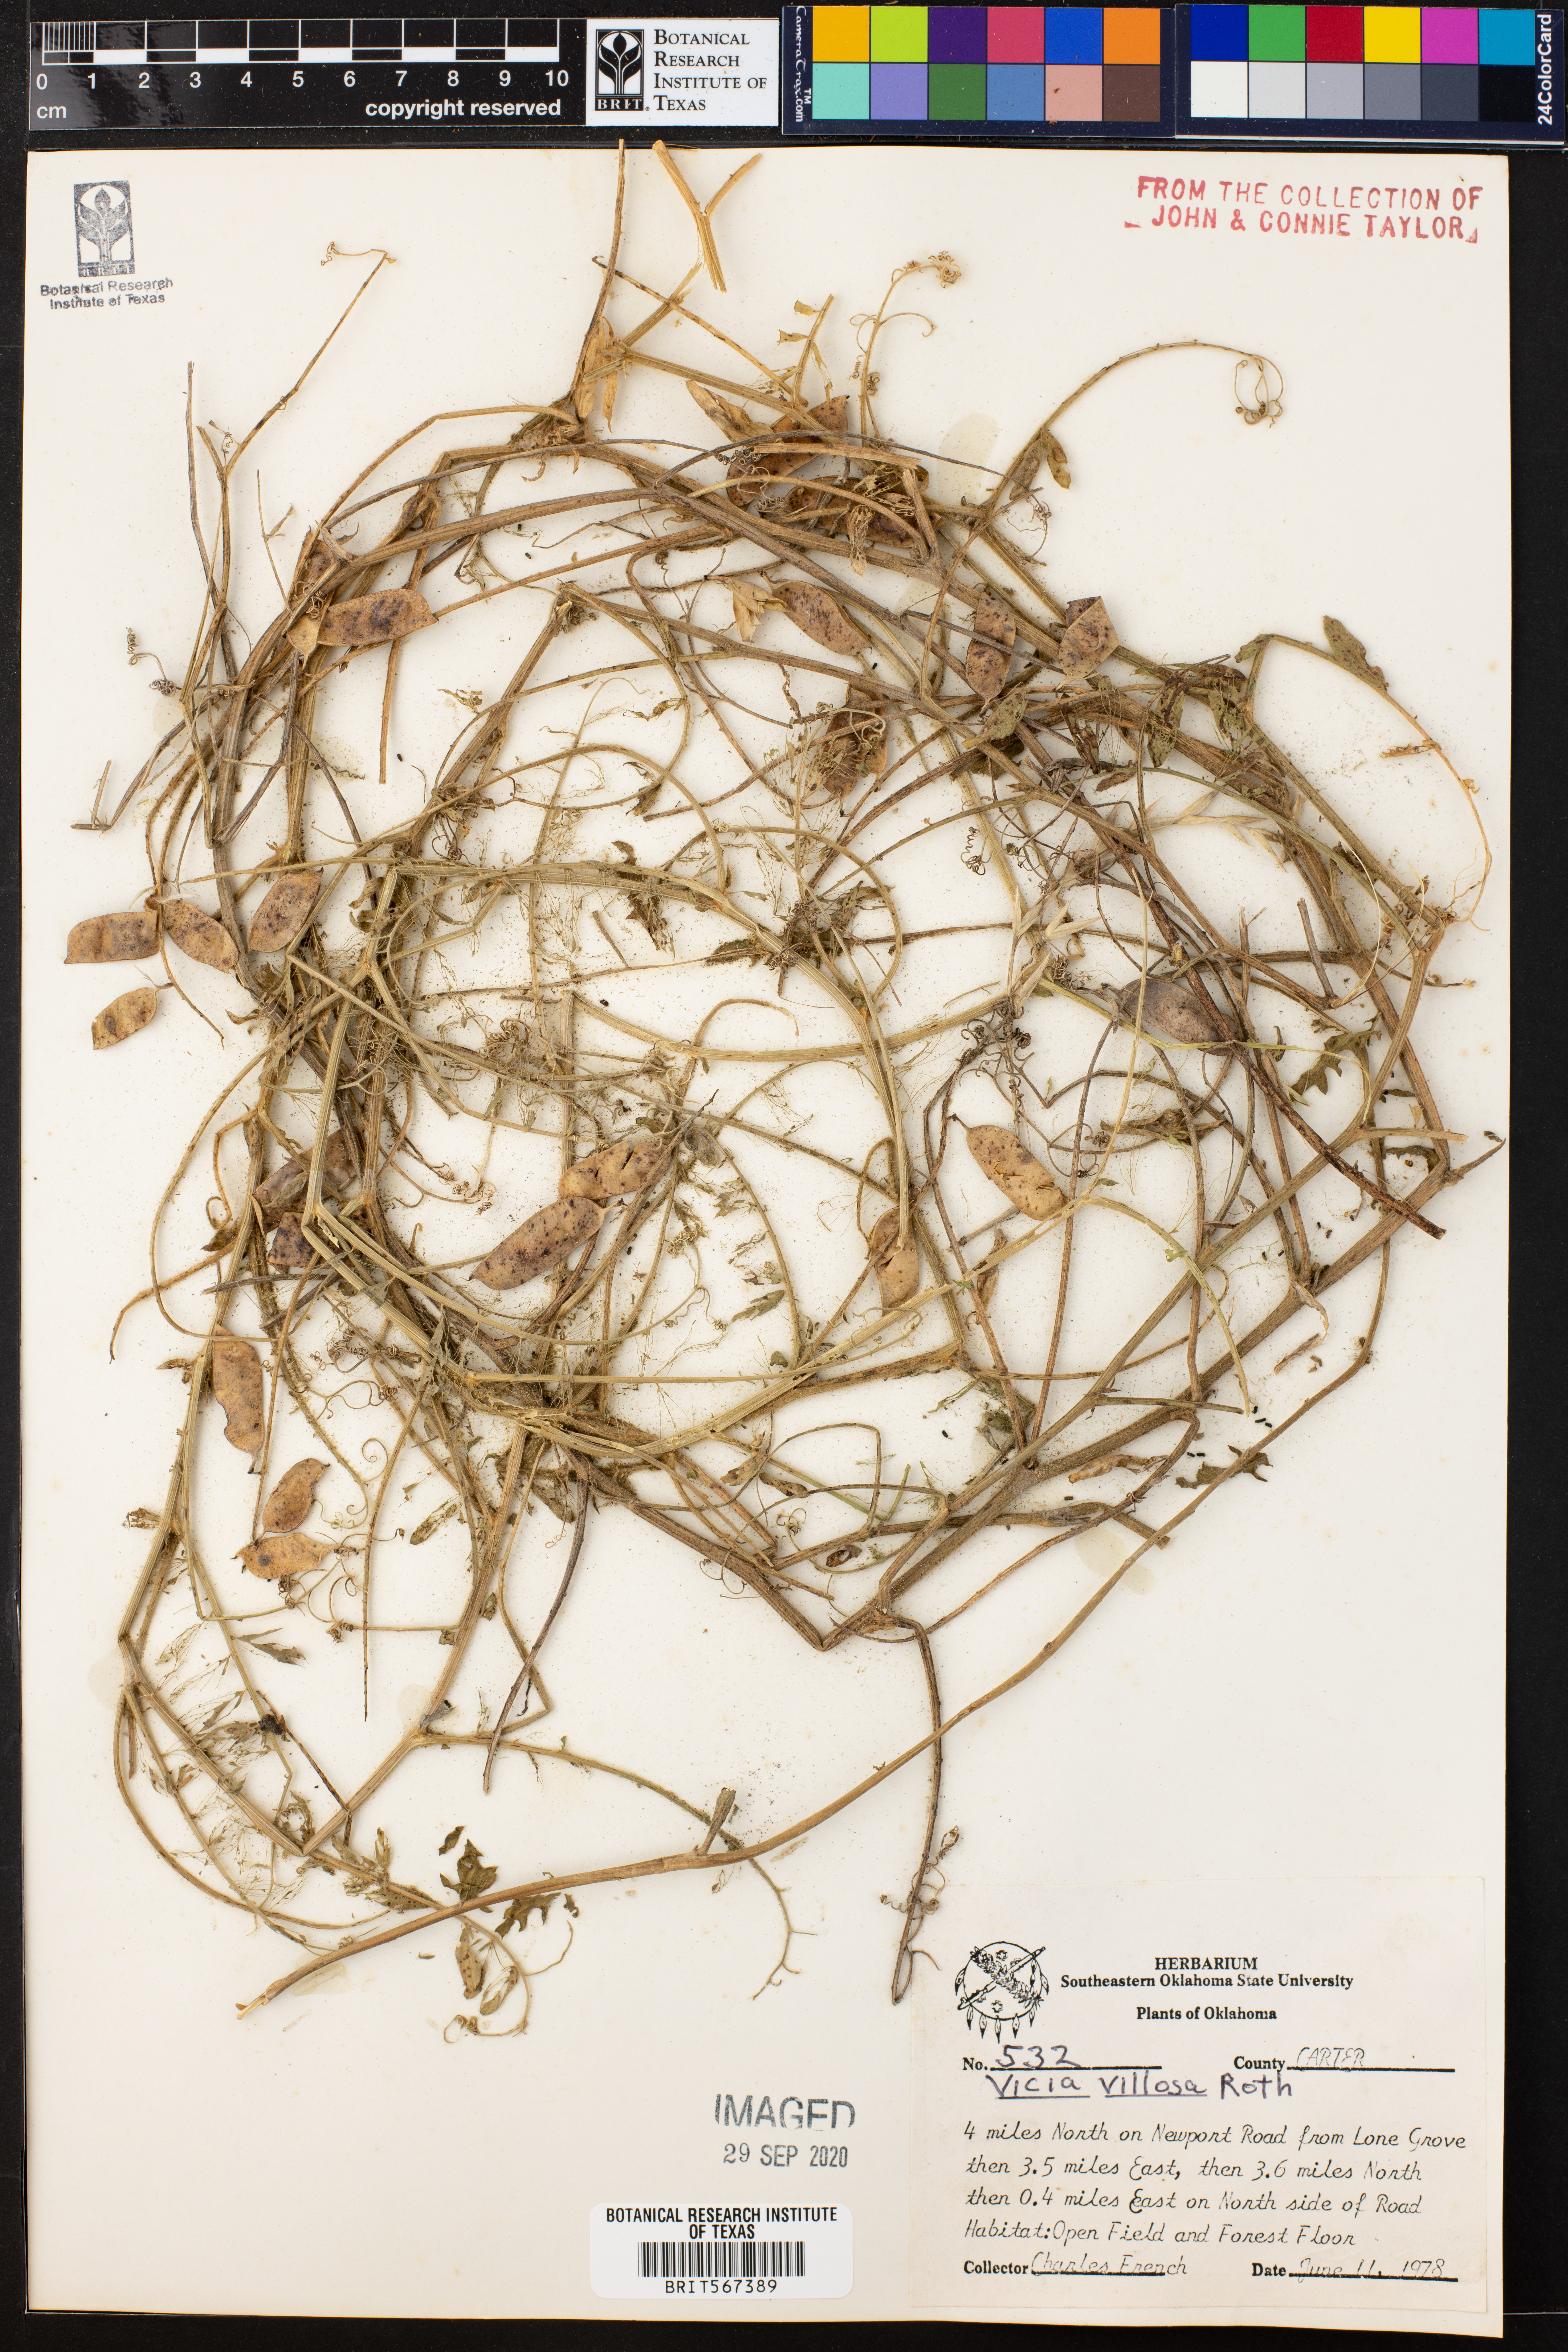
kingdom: Plantae
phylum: Tracheophyta
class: Magnoliopsida
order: Fabales
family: Fabaceae
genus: Vicia
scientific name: Vicia villosa
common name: Fodder vetch
